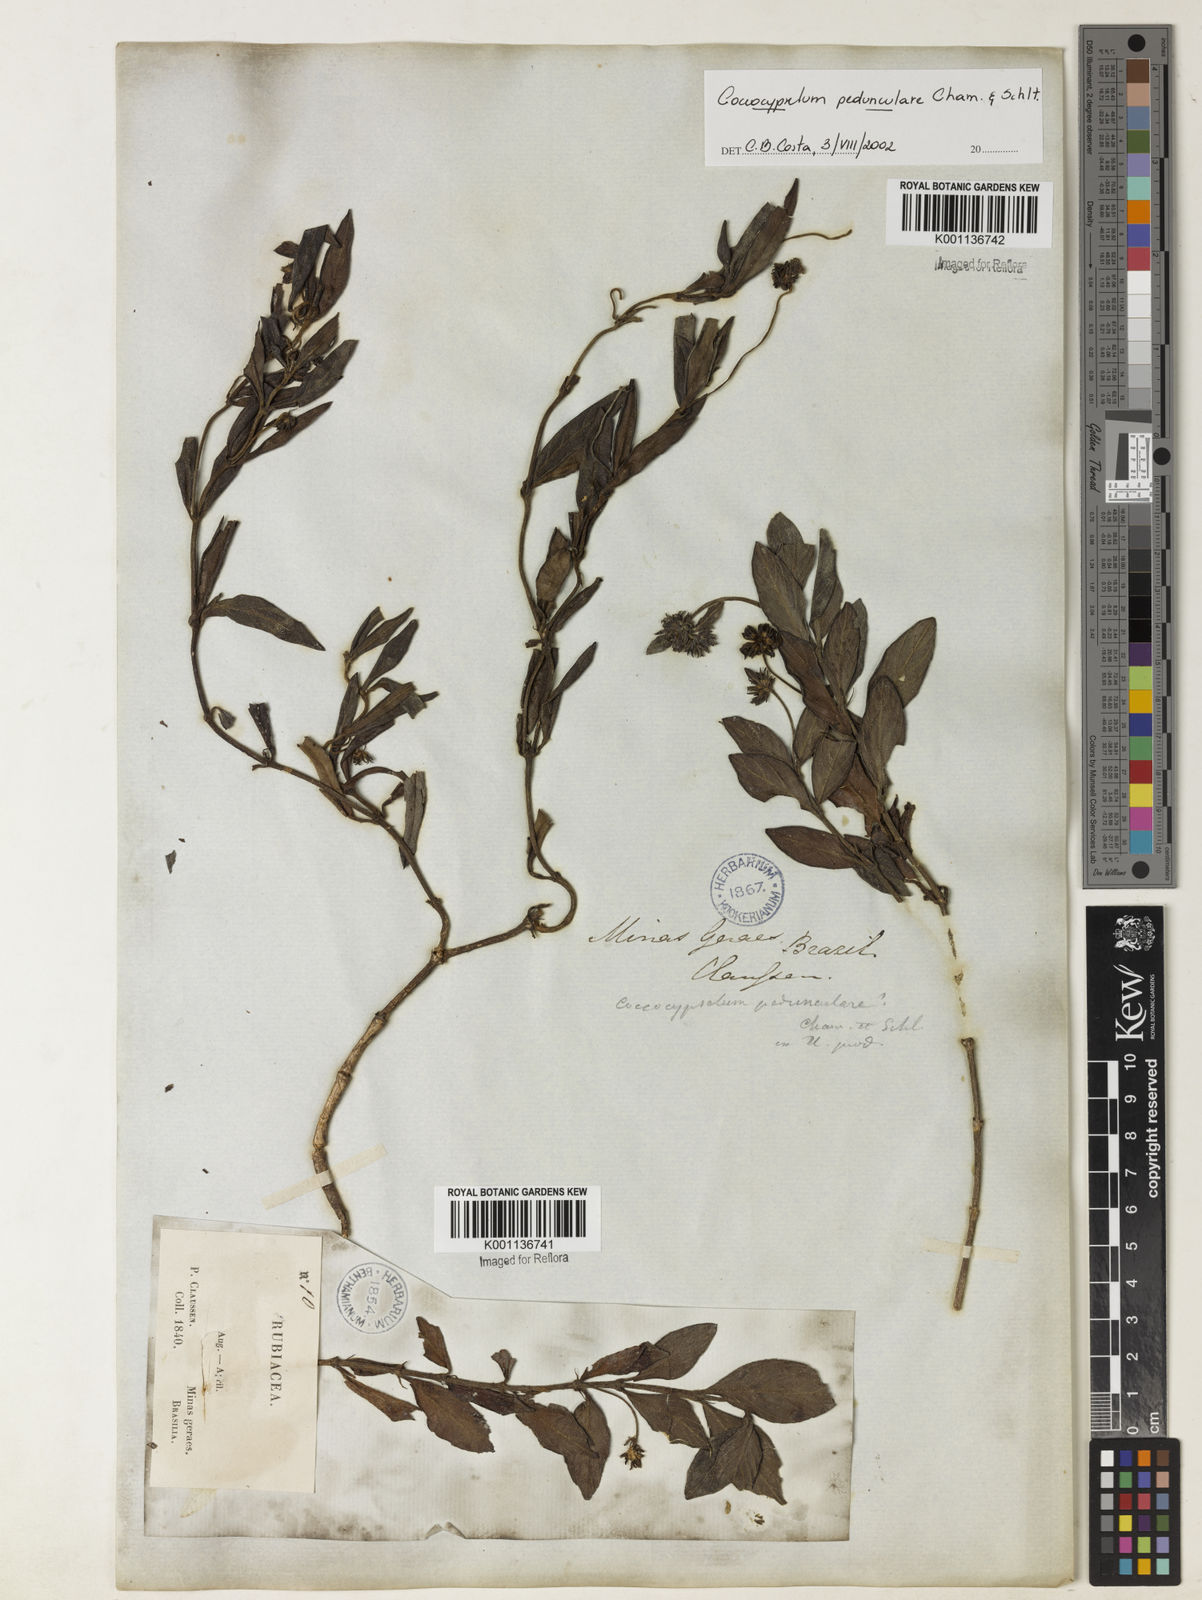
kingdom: Plantae
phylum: Tracheophyta
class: Magnoliopsida
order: Gentianales
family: Rubiaceae
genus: Coccocypselum
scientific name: Coccocypselum pedunculare
